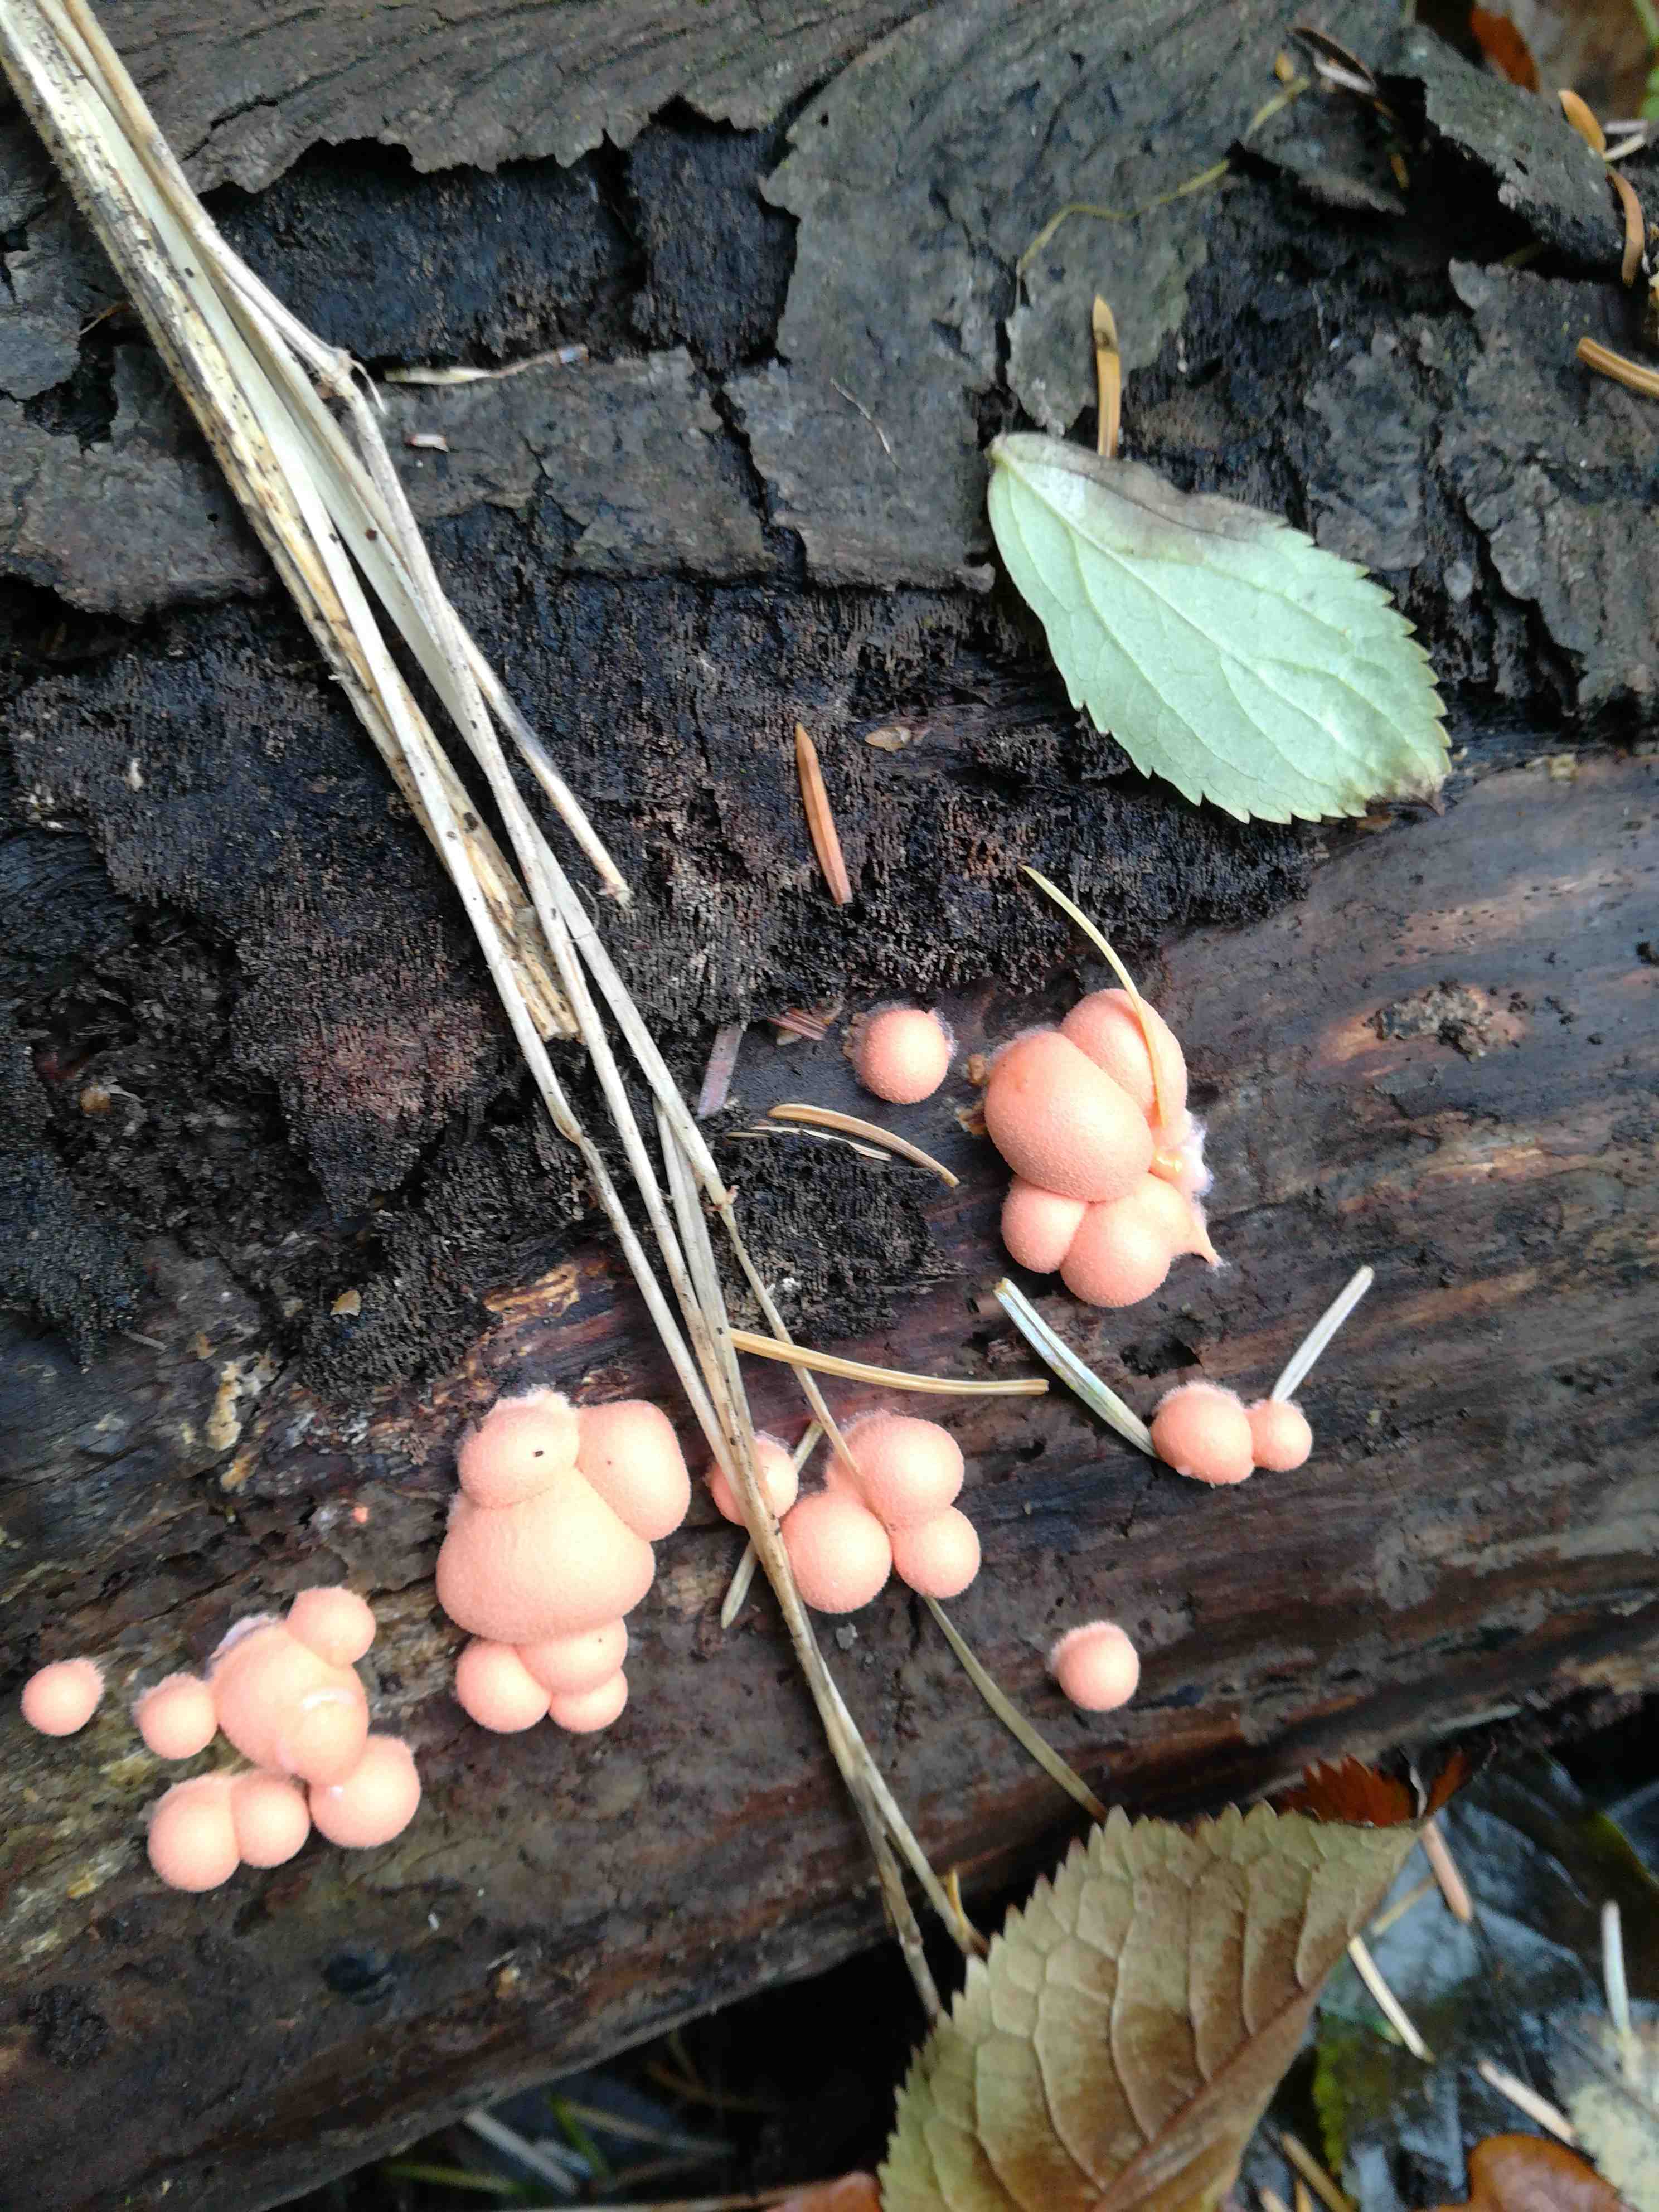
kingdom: Protozoa
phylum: Mycetozoa
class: Myxomycetes
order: Cribrariales
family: Tubiferaceae
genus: Lycogala
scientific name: Lycogala epidendrum
